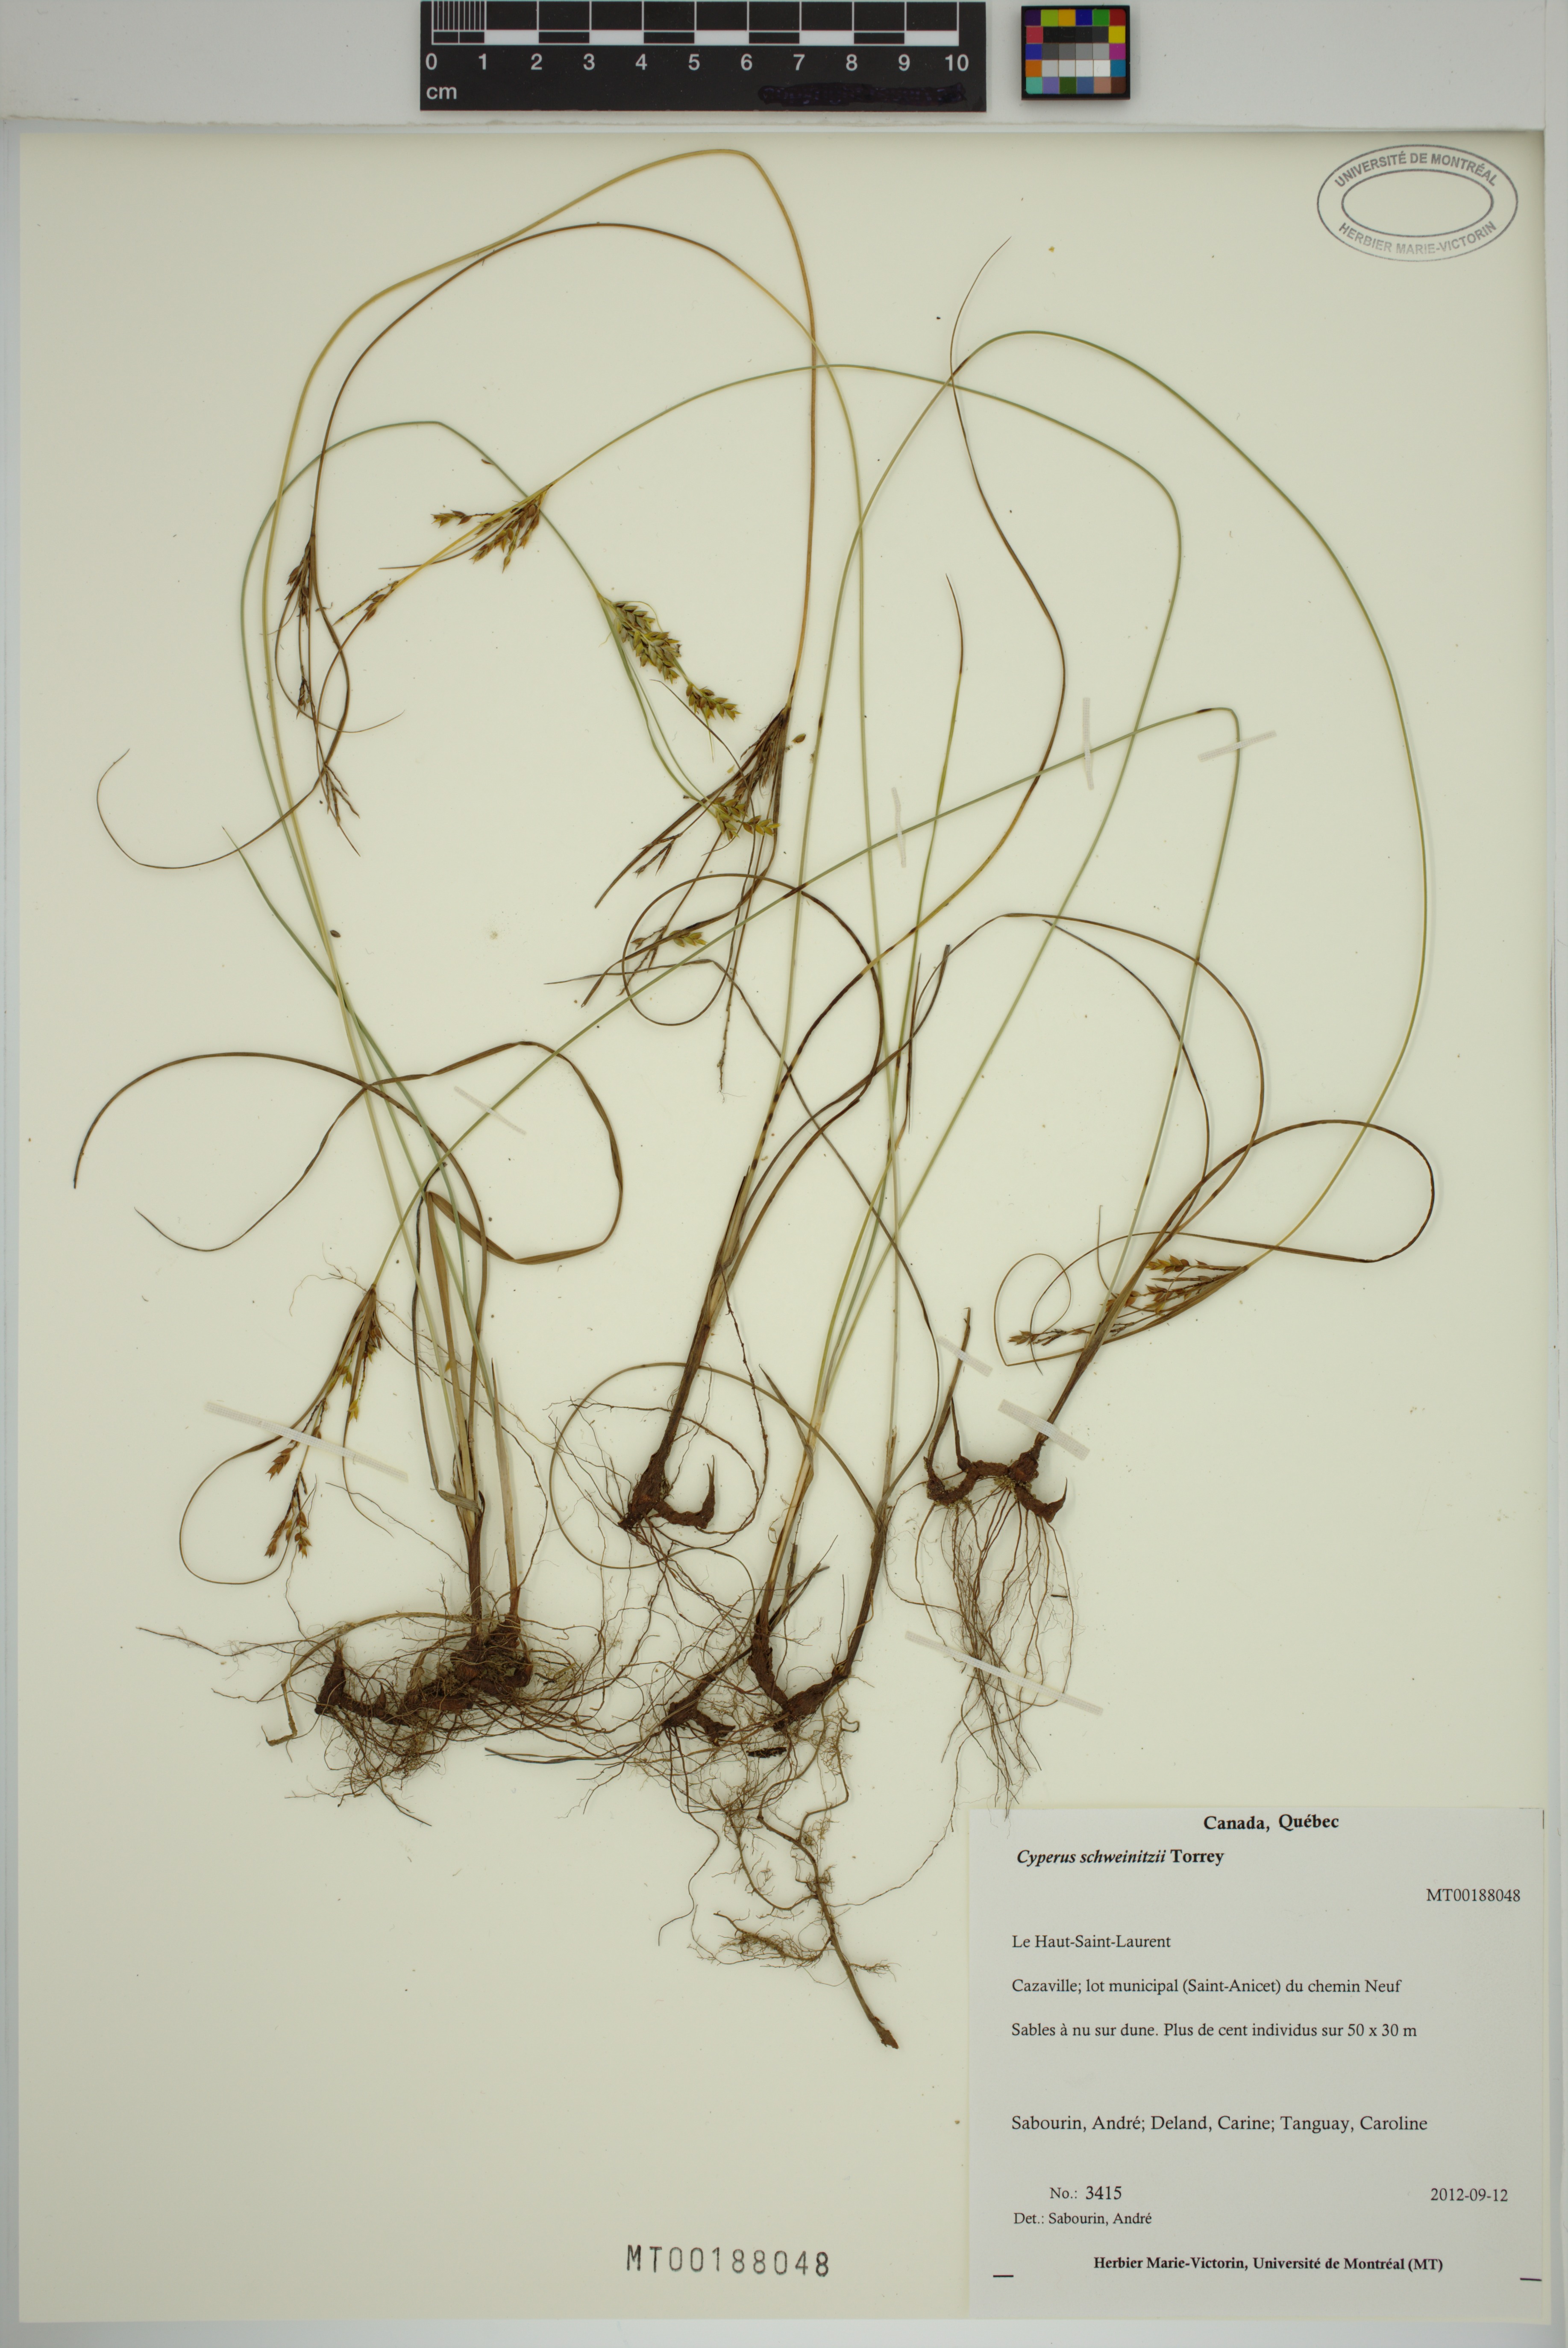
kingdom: Plantae
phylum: Tracheophyta
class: Liliopsida
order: Poales
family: Cyperaceae
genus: Cyperus
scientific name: Cyperus schweinitzii
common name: Schweinitz's cyperus
